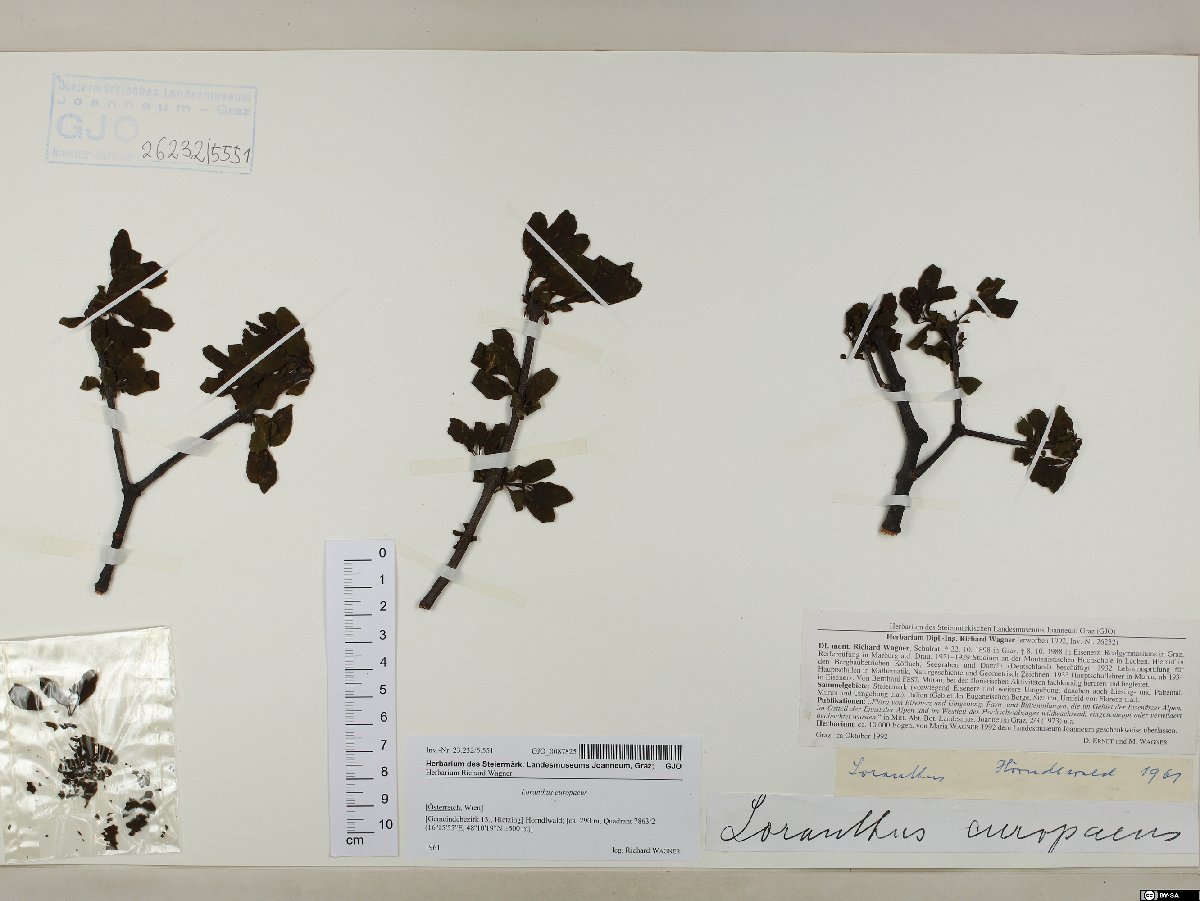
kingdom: Plantae
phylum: Tracheophyta
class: Magnoliopsida
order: Santalales
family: Loranthaceae
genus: Loranthus
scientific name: Loranthus europaeus
